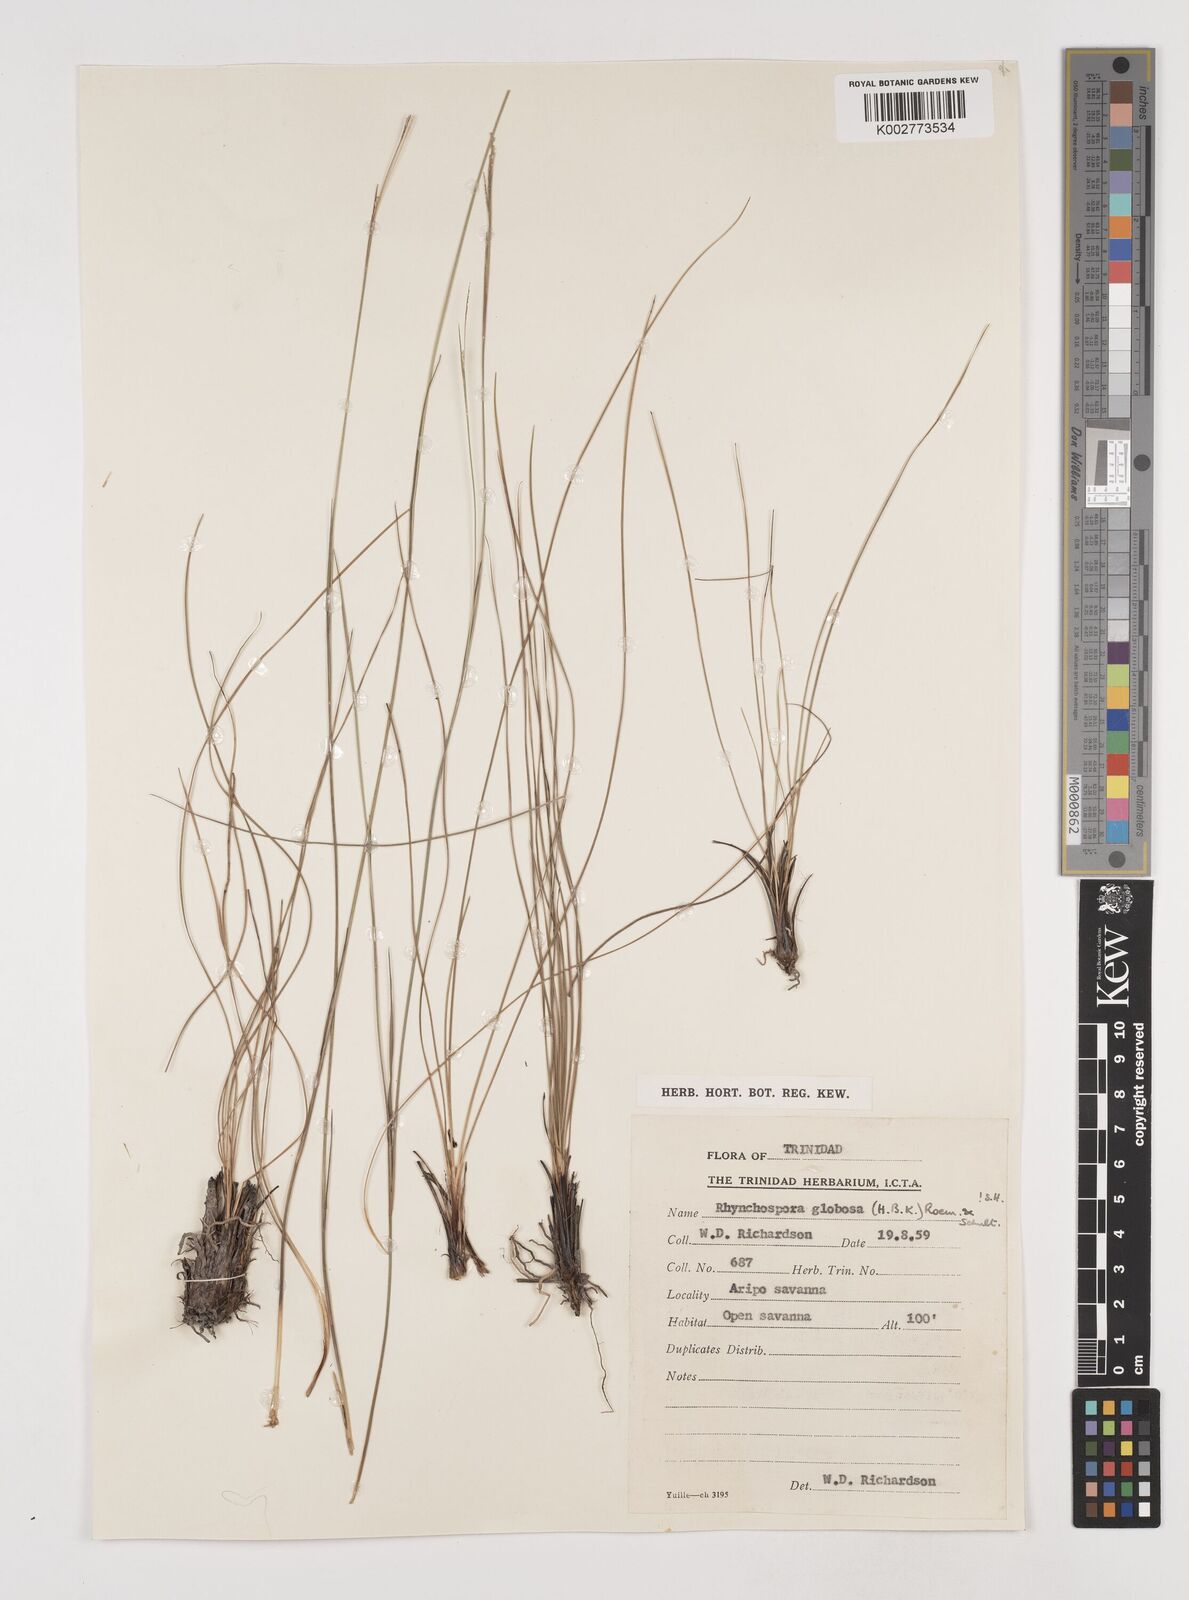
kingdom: Plantae
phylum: Tracheophyta
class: Liliopsida
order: Poales
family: Cyperaceae
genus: Rhynchospora
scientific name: Rhynchospora globosa
